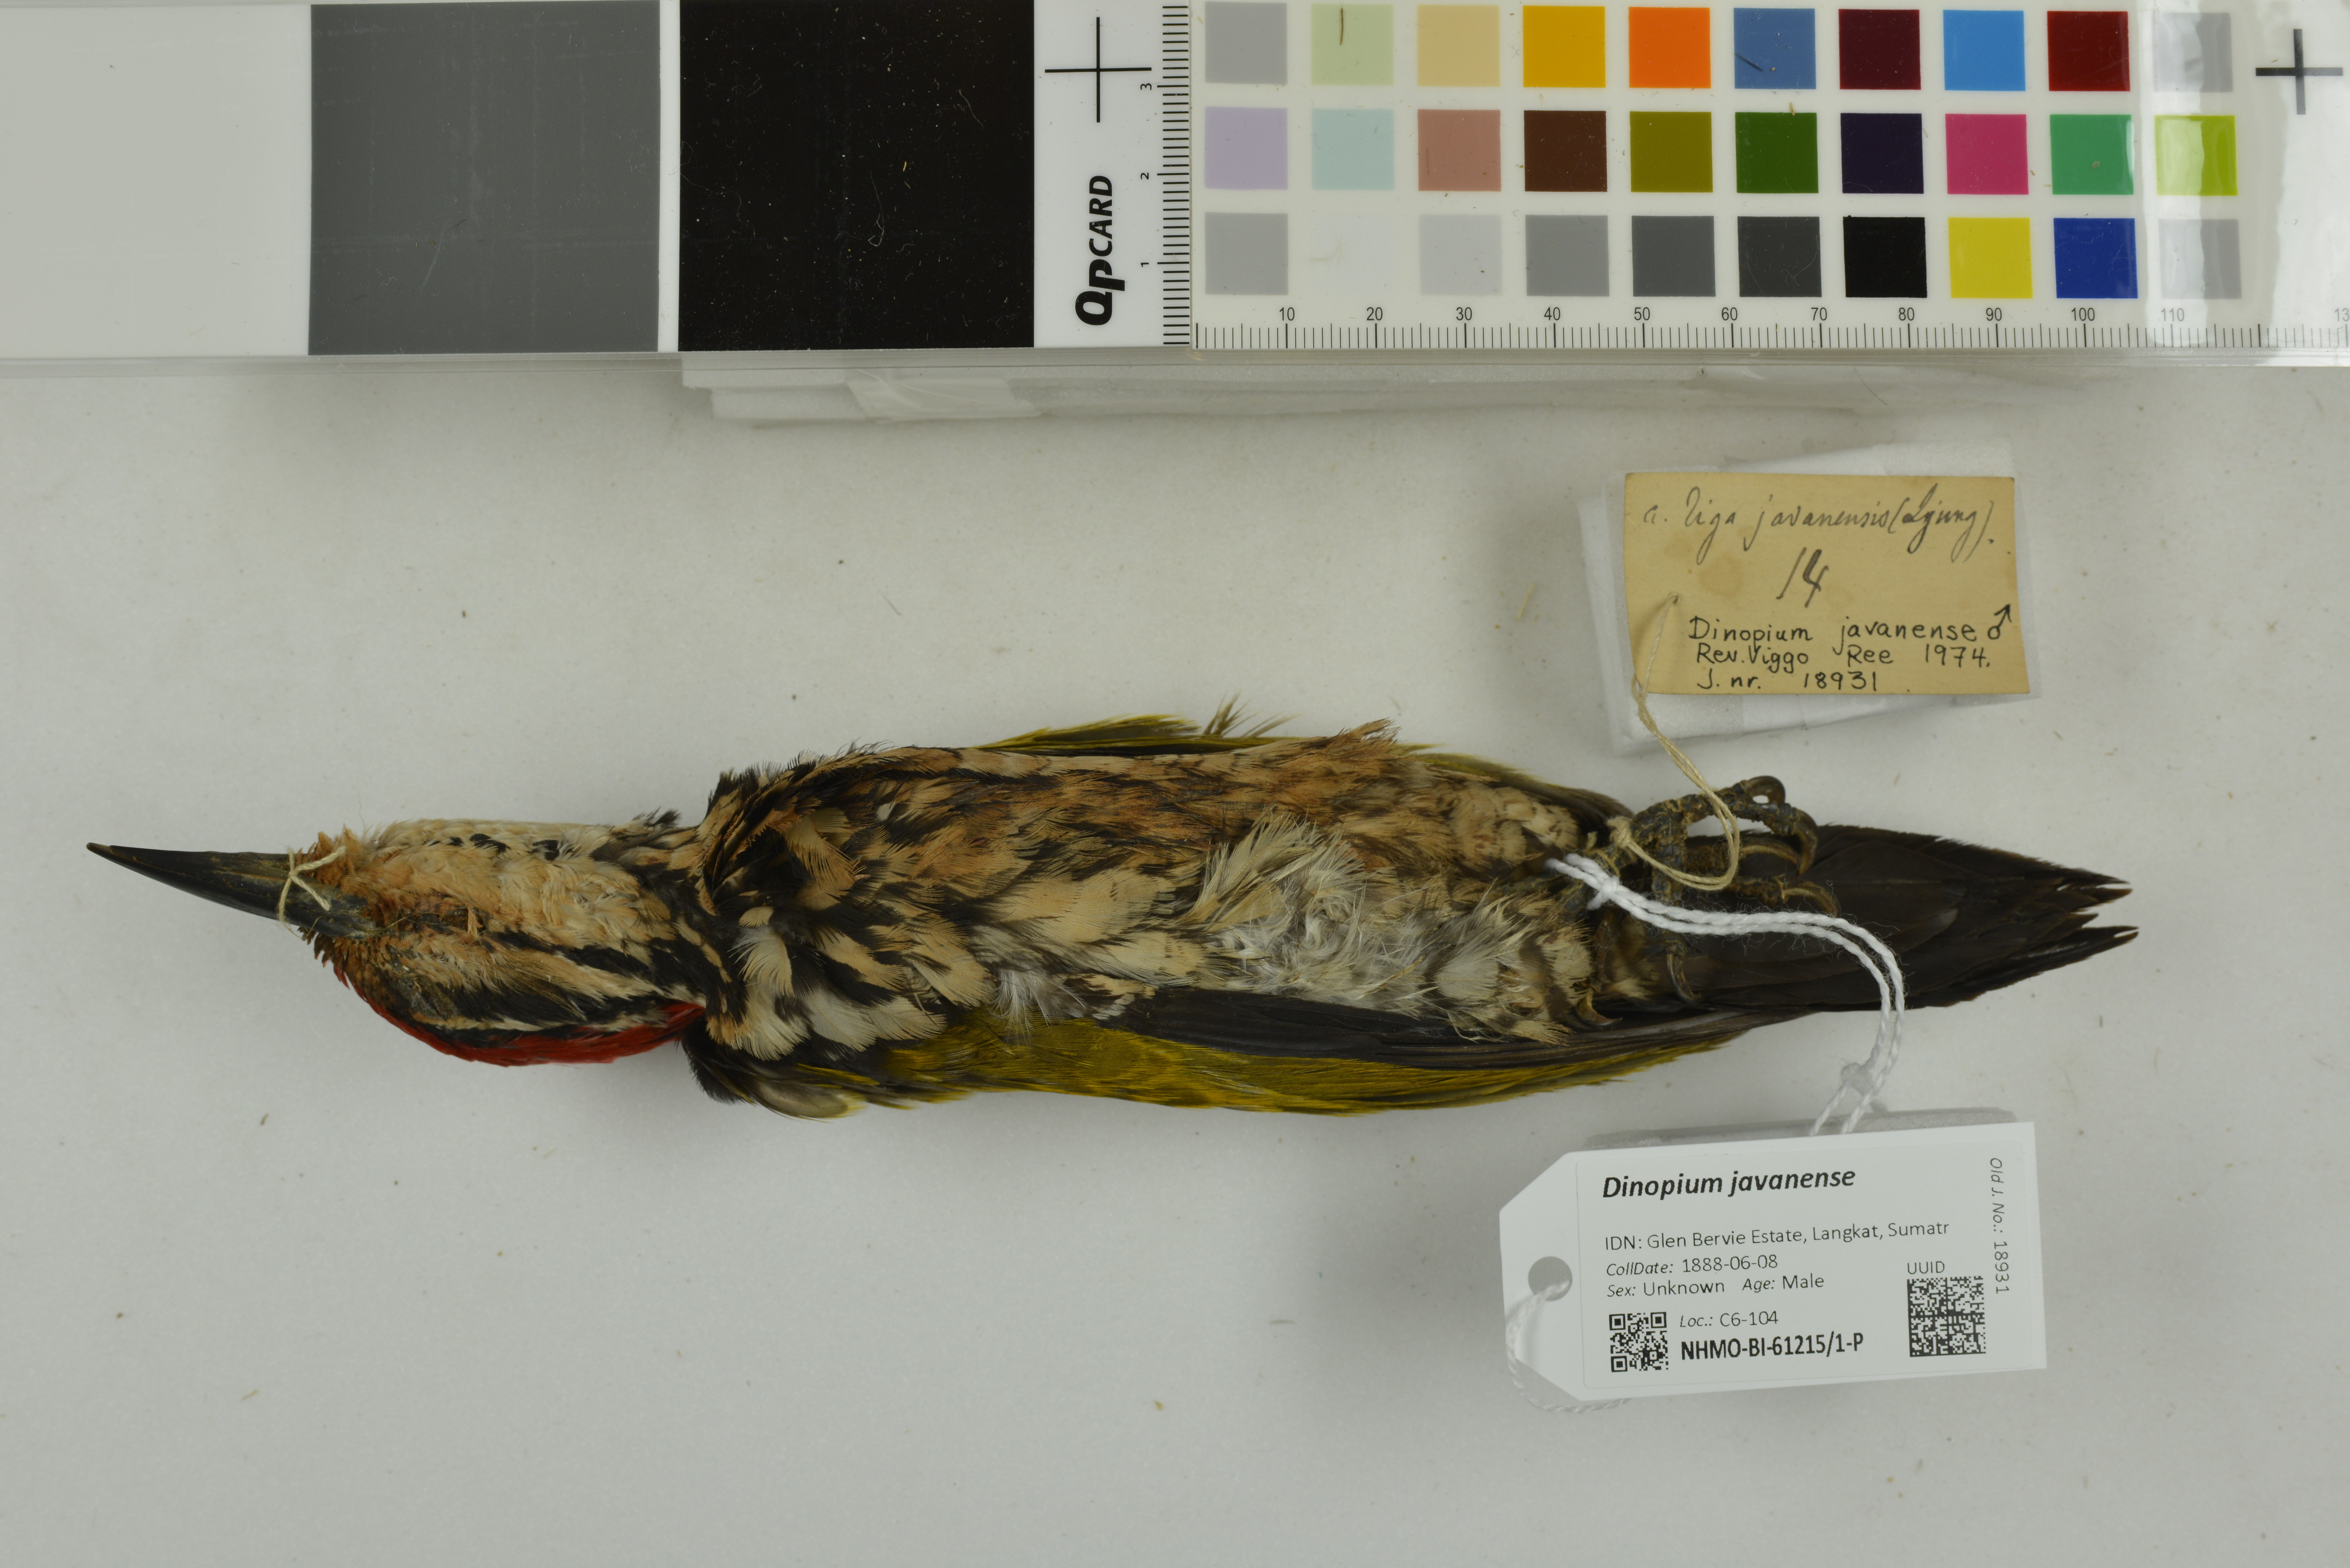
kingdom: Animalia
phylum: Chordata
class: Aves
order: Piciformes
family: Picidae
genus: Dinopium
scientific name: Dinopium javanense
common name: Common flameback
